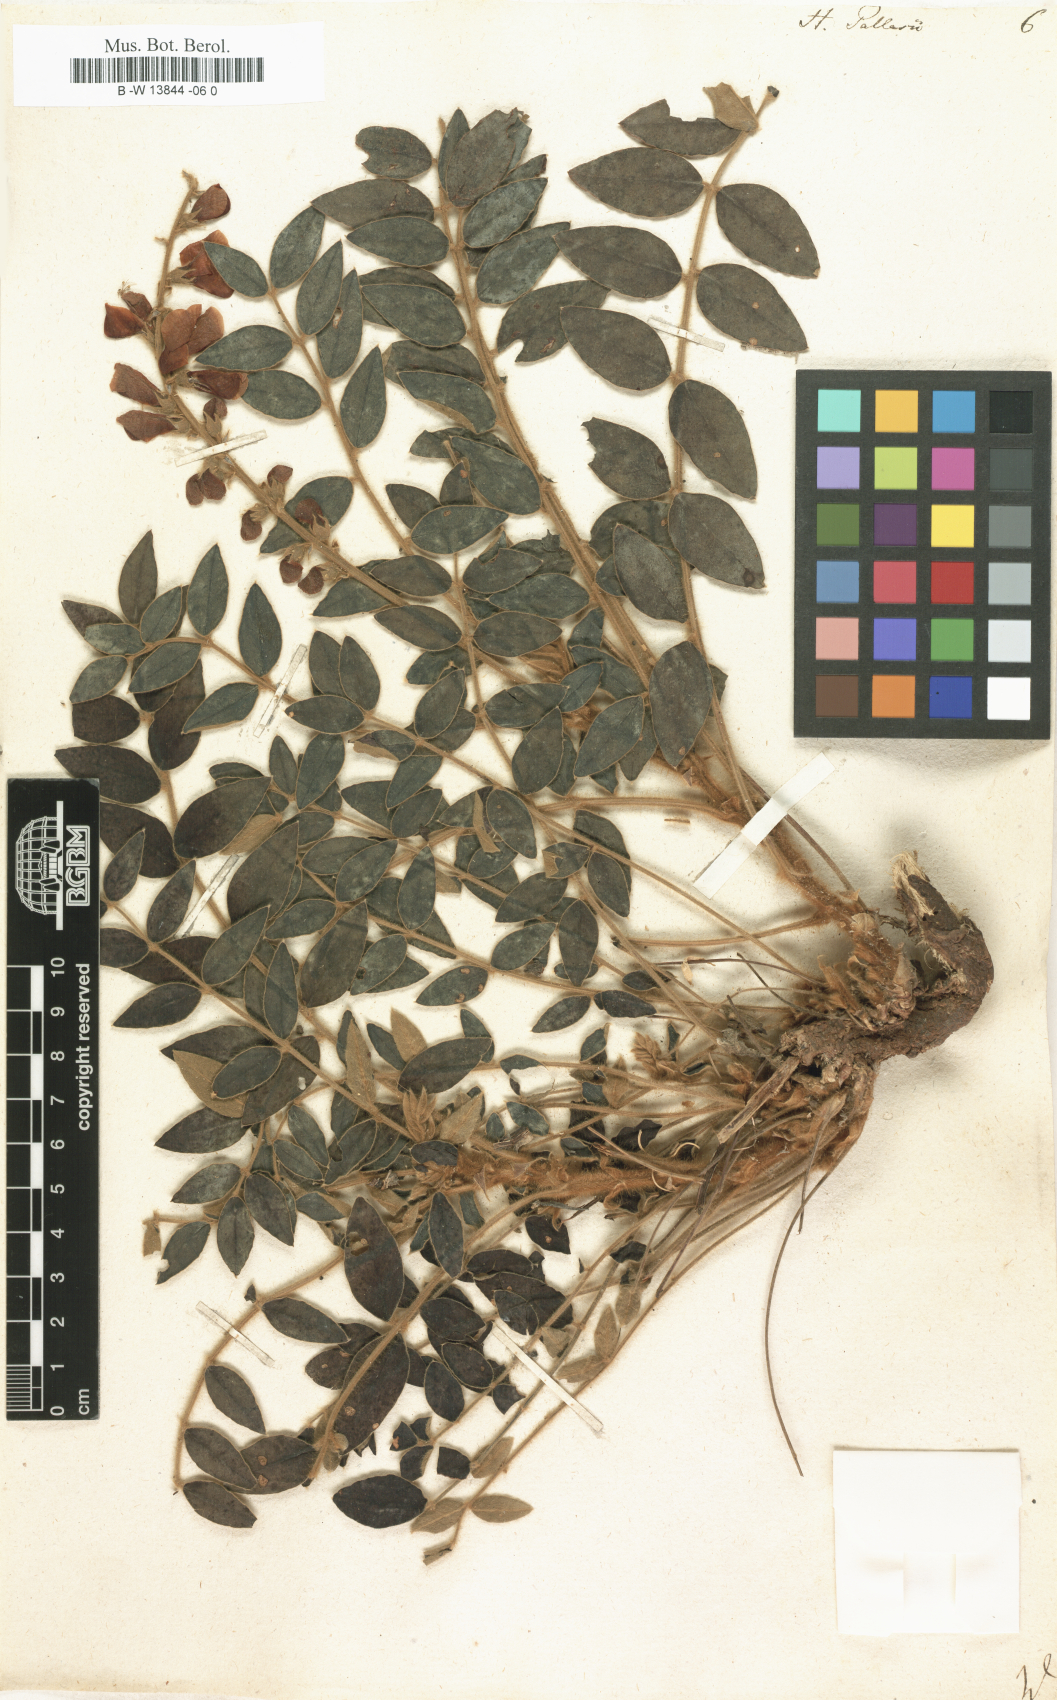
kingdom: Plantae
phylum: Tracheophyta
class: Magnoliopsida
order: Fabales
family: Fabaceae
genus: Onobrychis
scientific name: Onobrychis pallasii
